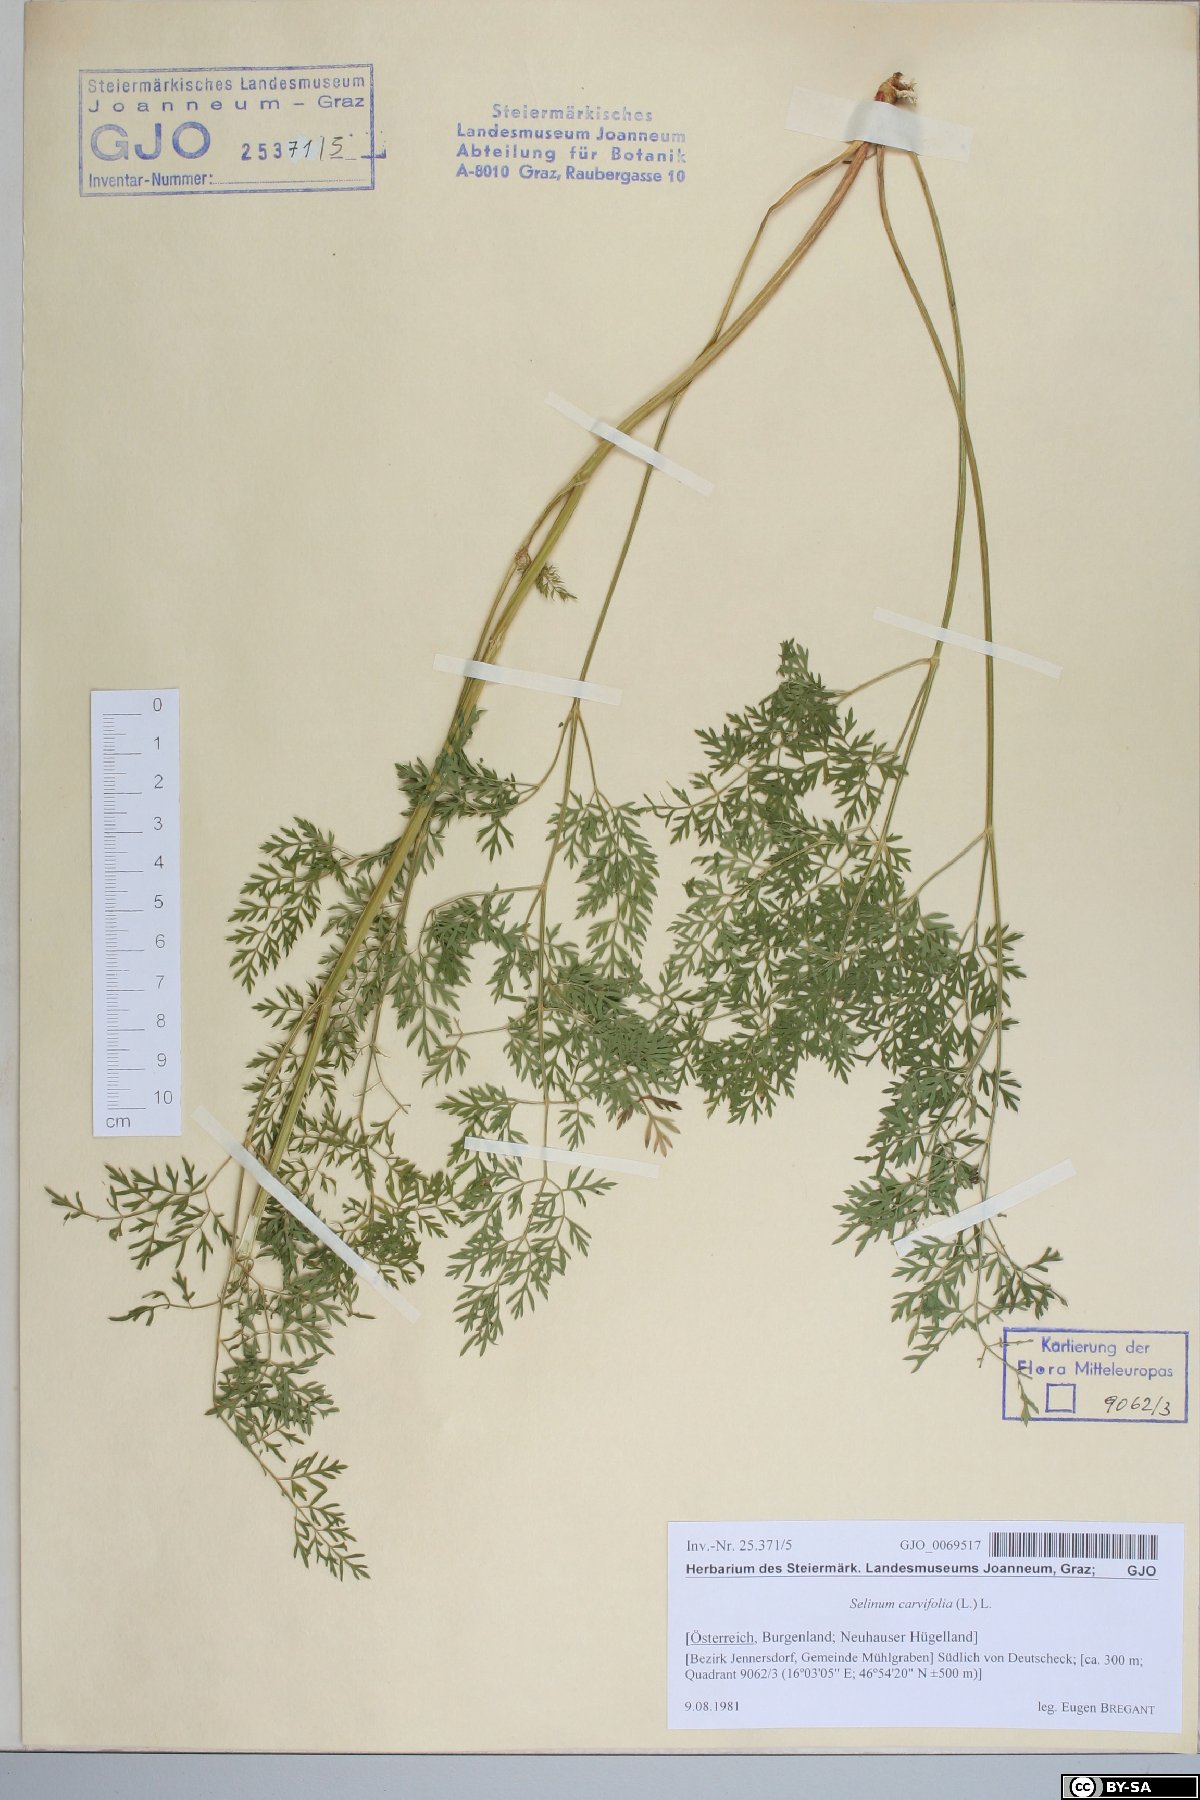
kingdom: Plantae
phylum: Tracheophyta
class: Magnoliopsida
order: Apiales
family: Apiaceae
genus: Selinum
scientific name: Selinum carvifolia
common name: Cambridge milk-parsley
